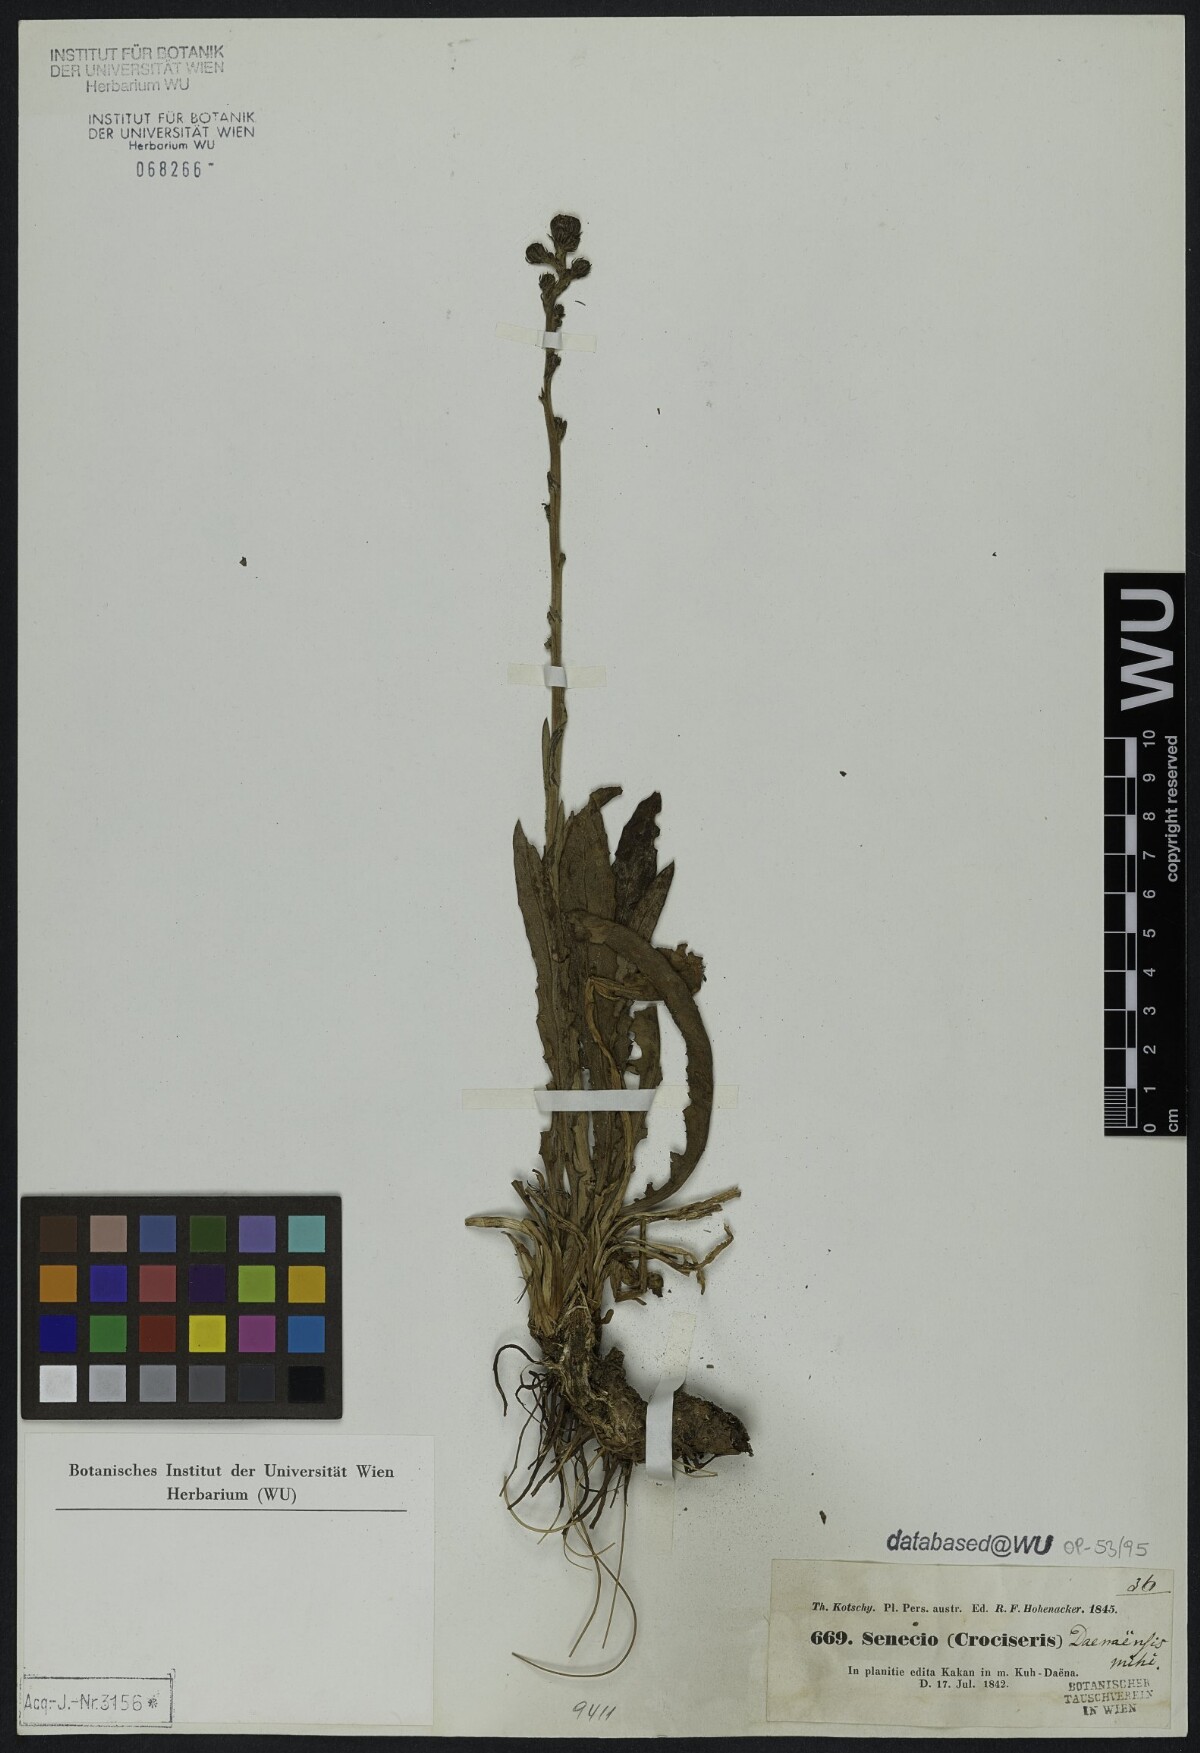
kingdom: Plantae
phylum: Tracheophyta
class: Magnoliopsida
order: Asterales
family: Asteraceae
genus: Senecio
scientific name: Senecio
